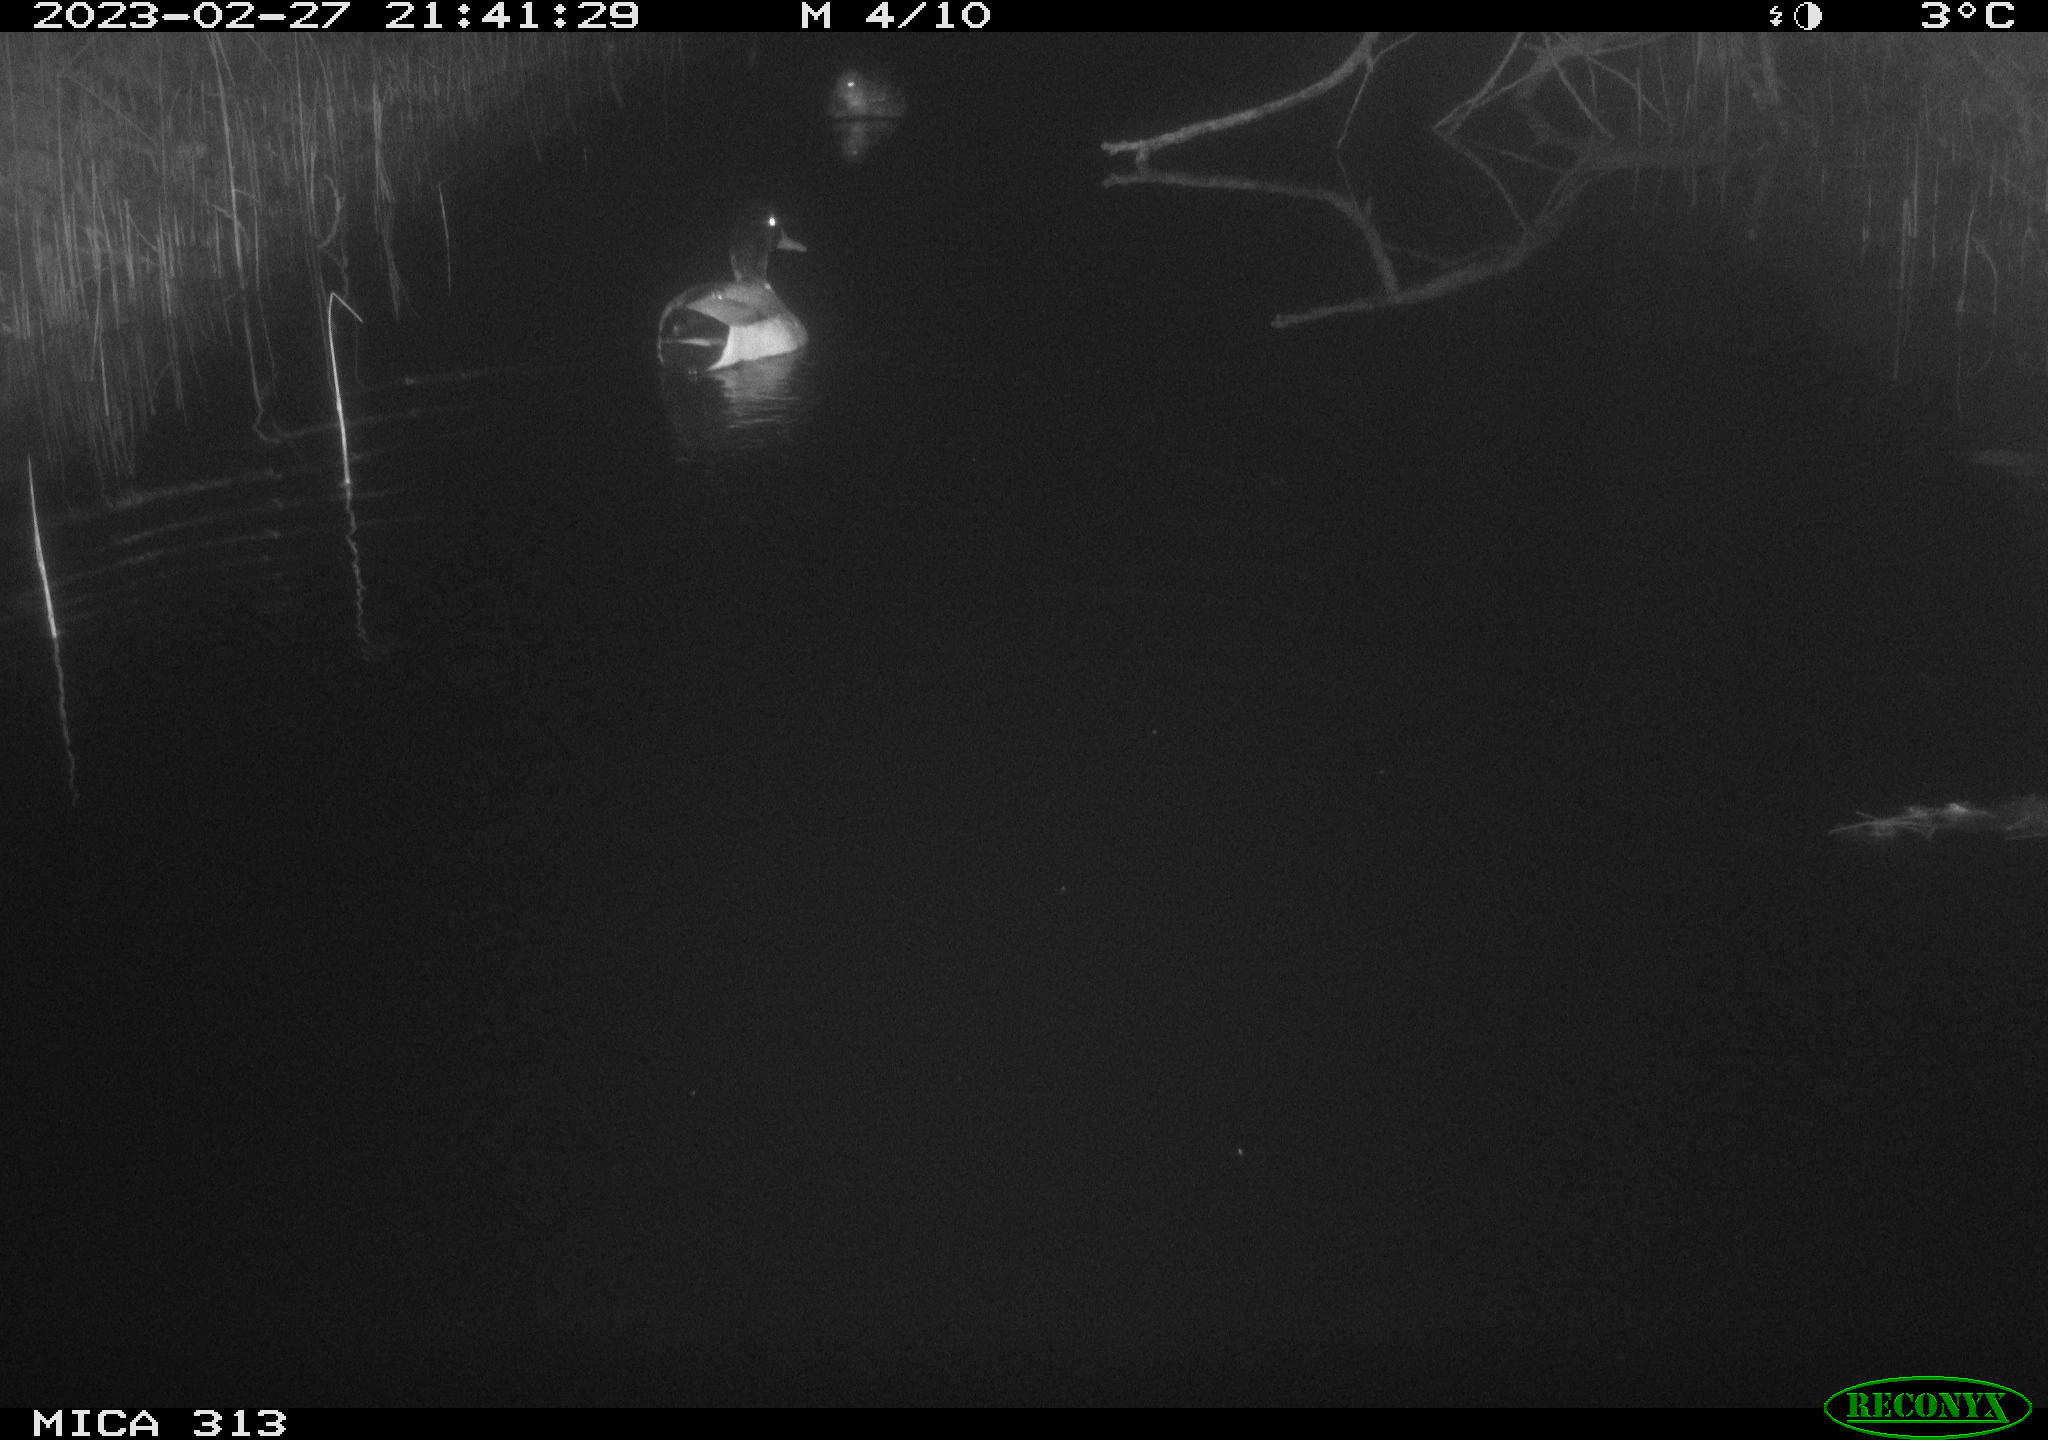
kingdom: Animalia
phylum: Chordata
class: Aves
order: Anseriformes
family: Anatidae
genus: Anas
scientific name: Anas
